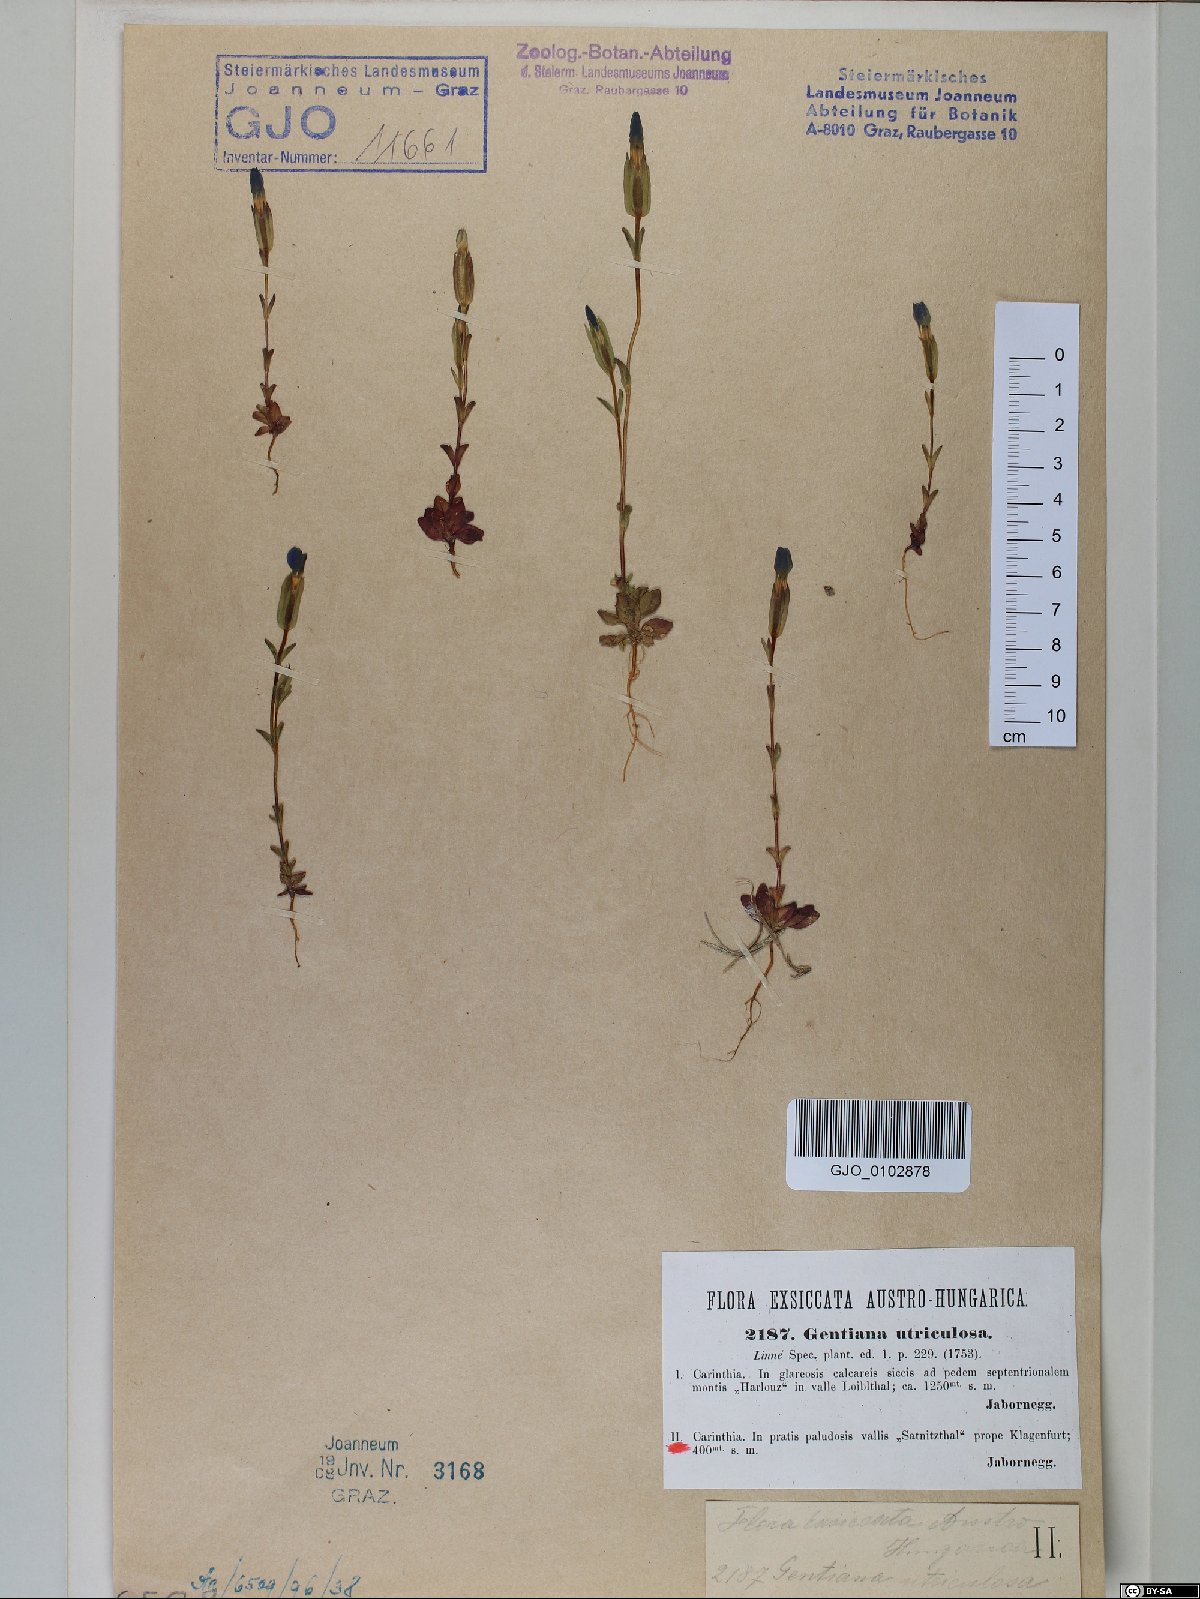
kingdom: Plantae
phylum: Tracheophyta
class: Magnoliopsida
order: Gentianales
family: Gentianaceae
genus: Gentiana
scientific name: Gentiana utriculosa
